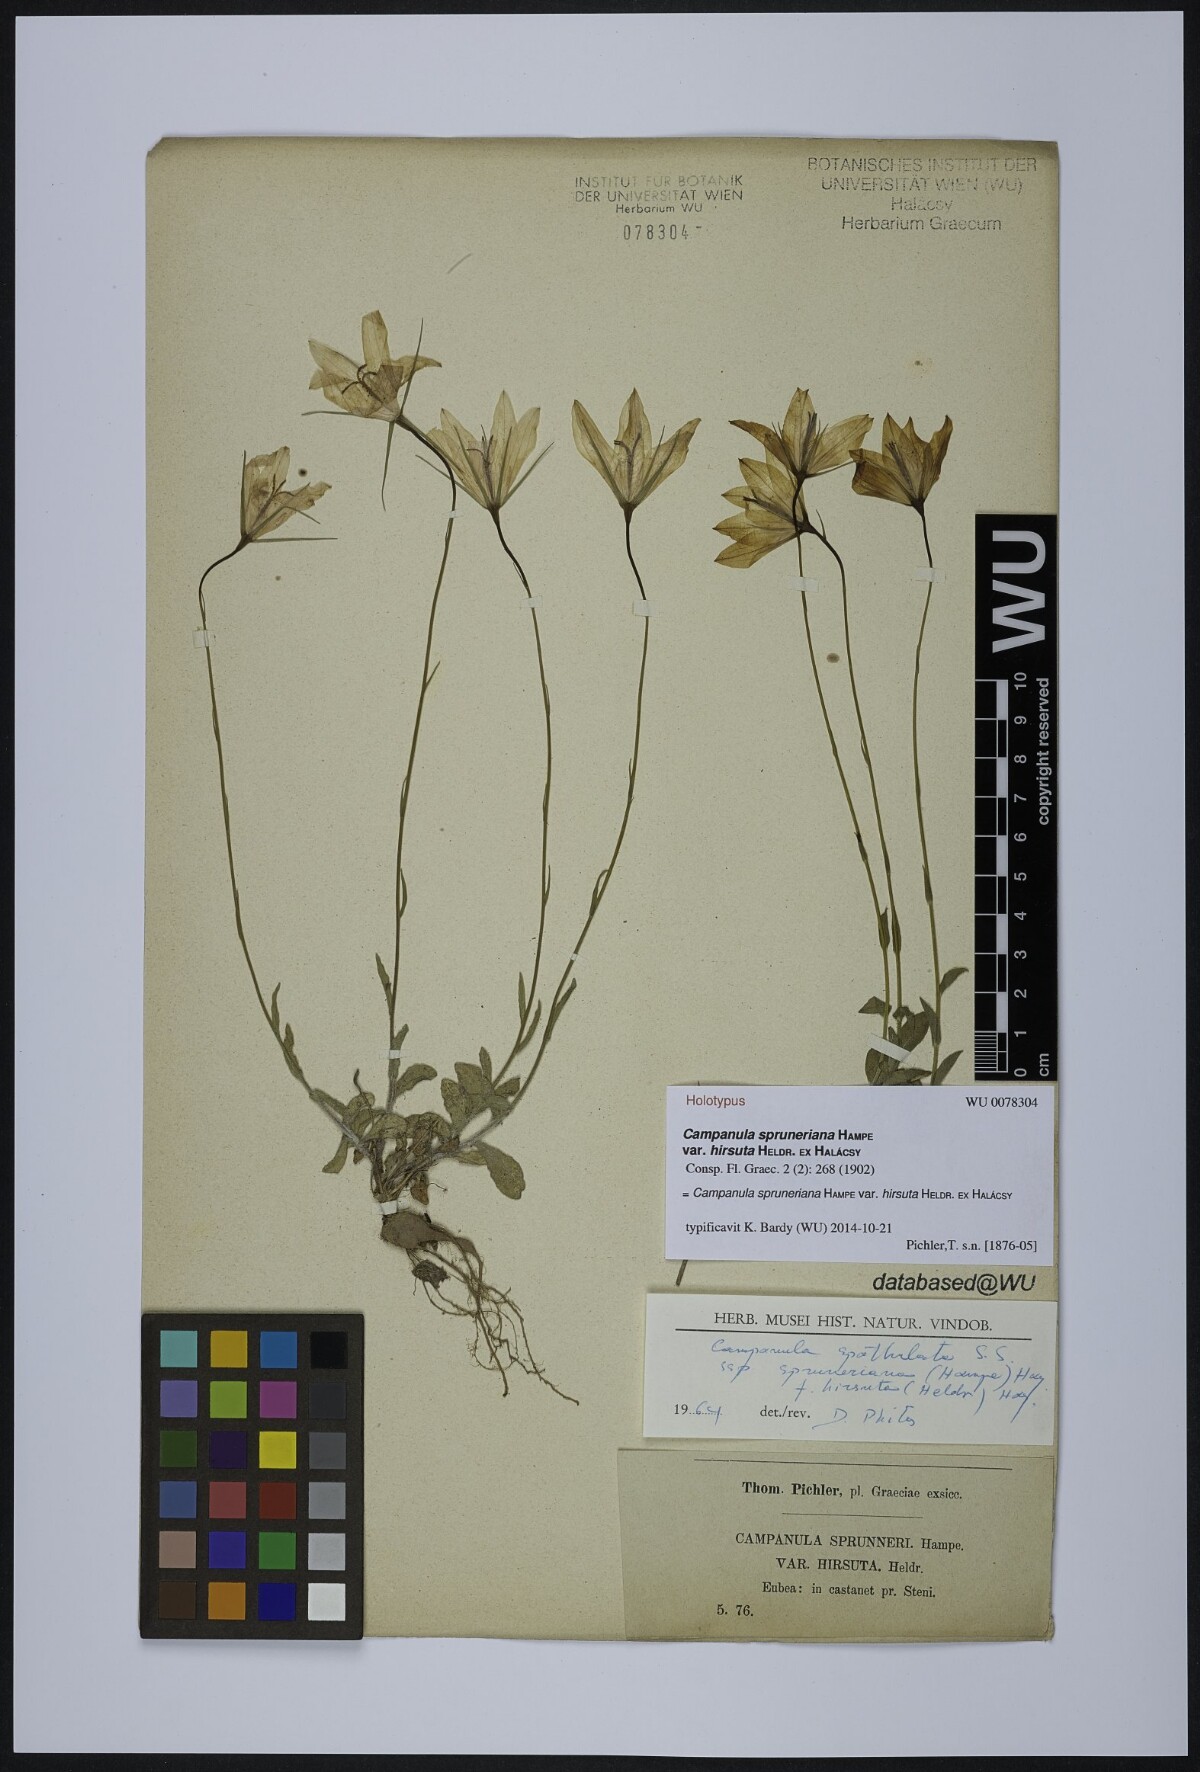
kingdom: Plantae
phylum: Tracheophyta
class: Magnoliopsida
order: Asterales
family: Campanulaceae
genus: Campanula
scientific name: Campanula spatulata
